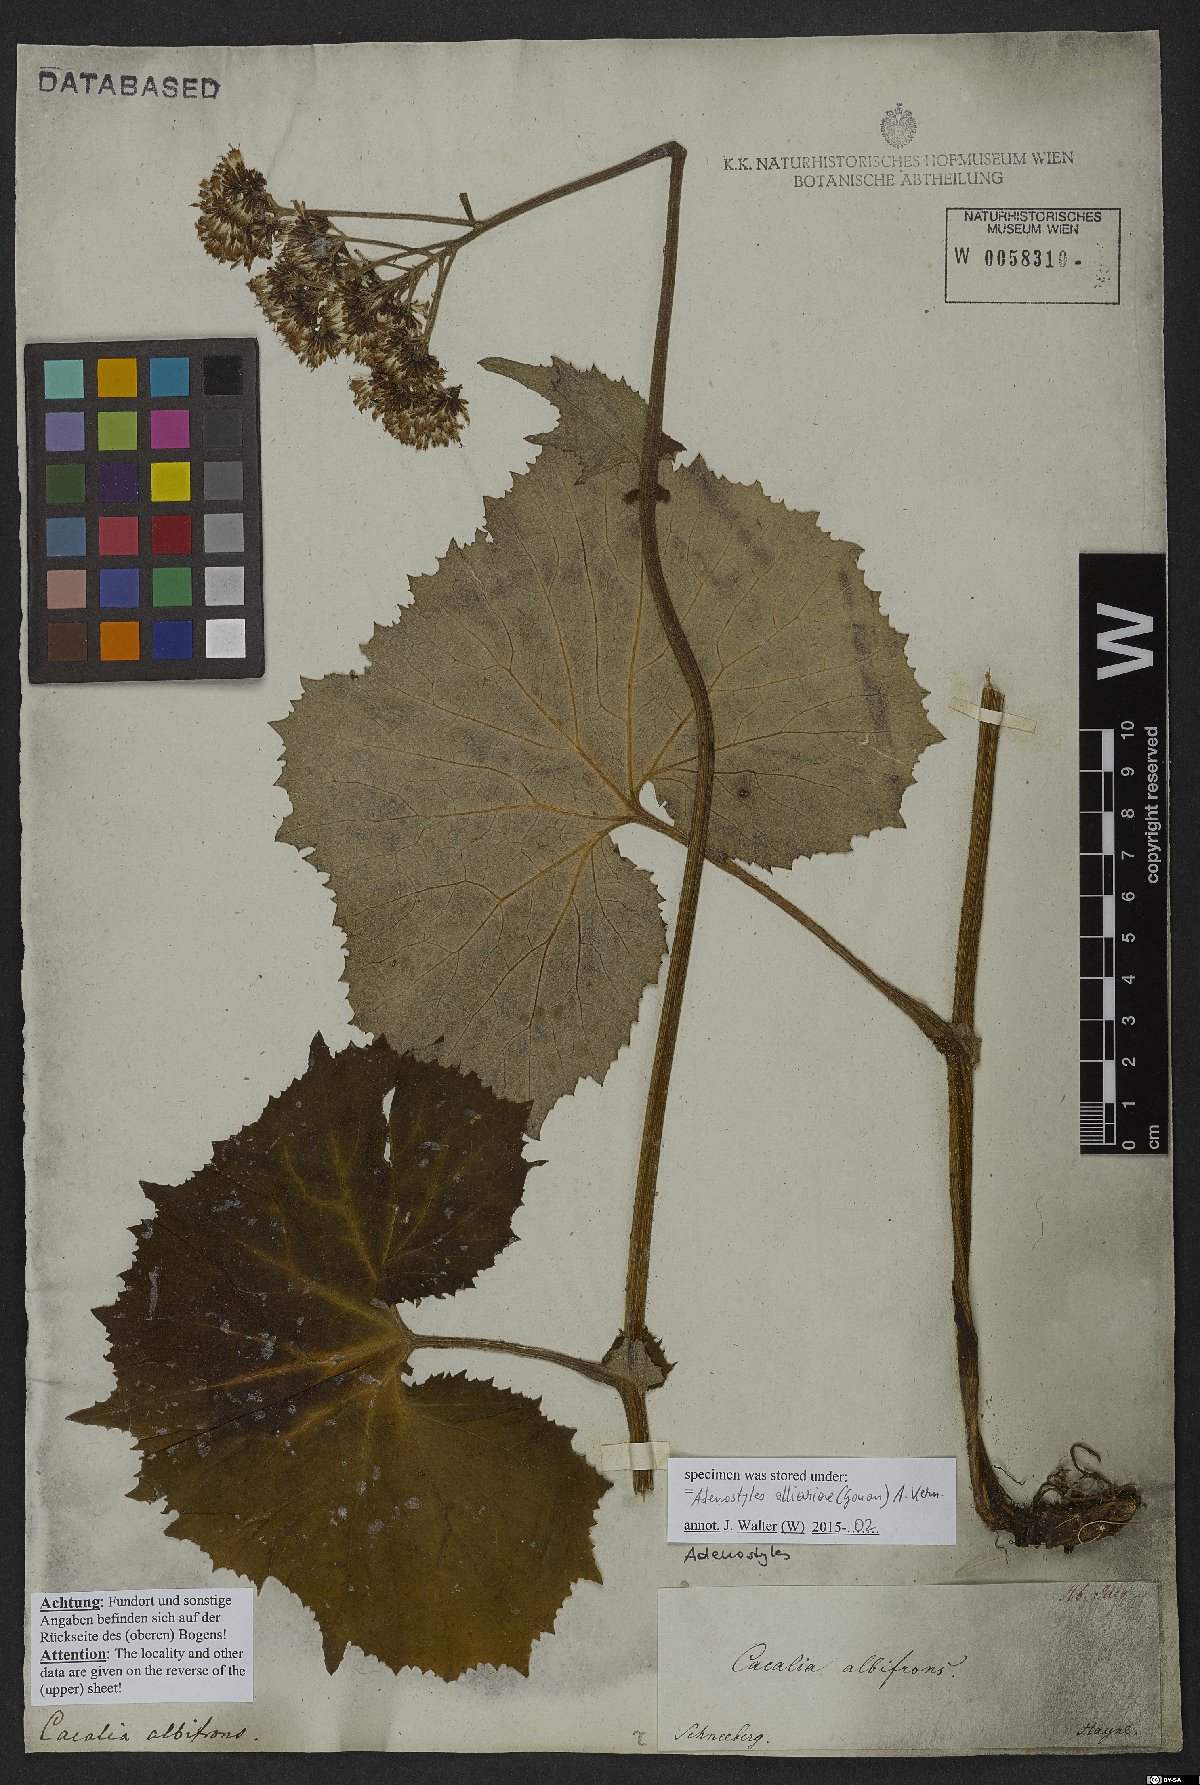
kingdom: Plantae
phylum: Tracheophyta
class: Magnoliopsida
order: Asterales
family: Asteraceae
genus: Adenostyles
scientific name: Adenostyles alliariae
